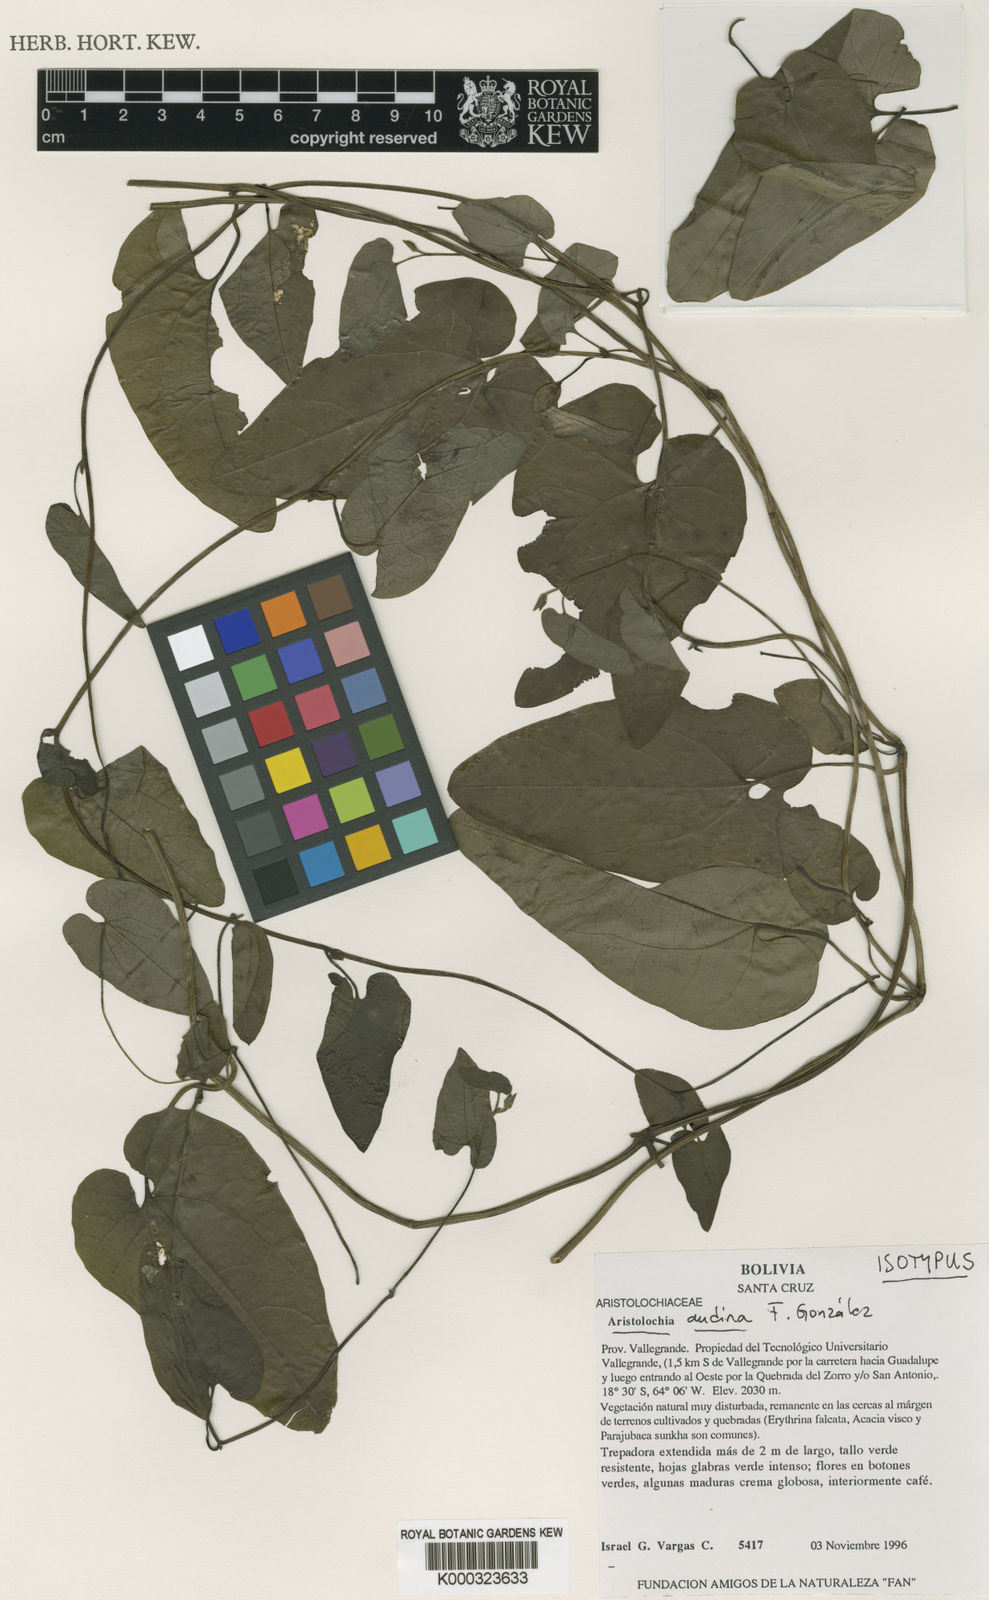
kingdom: Plantae
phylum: Tracheophyta
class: Magnoliopsida
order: Piperales
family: Aristolochiaceae
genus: Aristolochia
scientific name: Aristolochia
